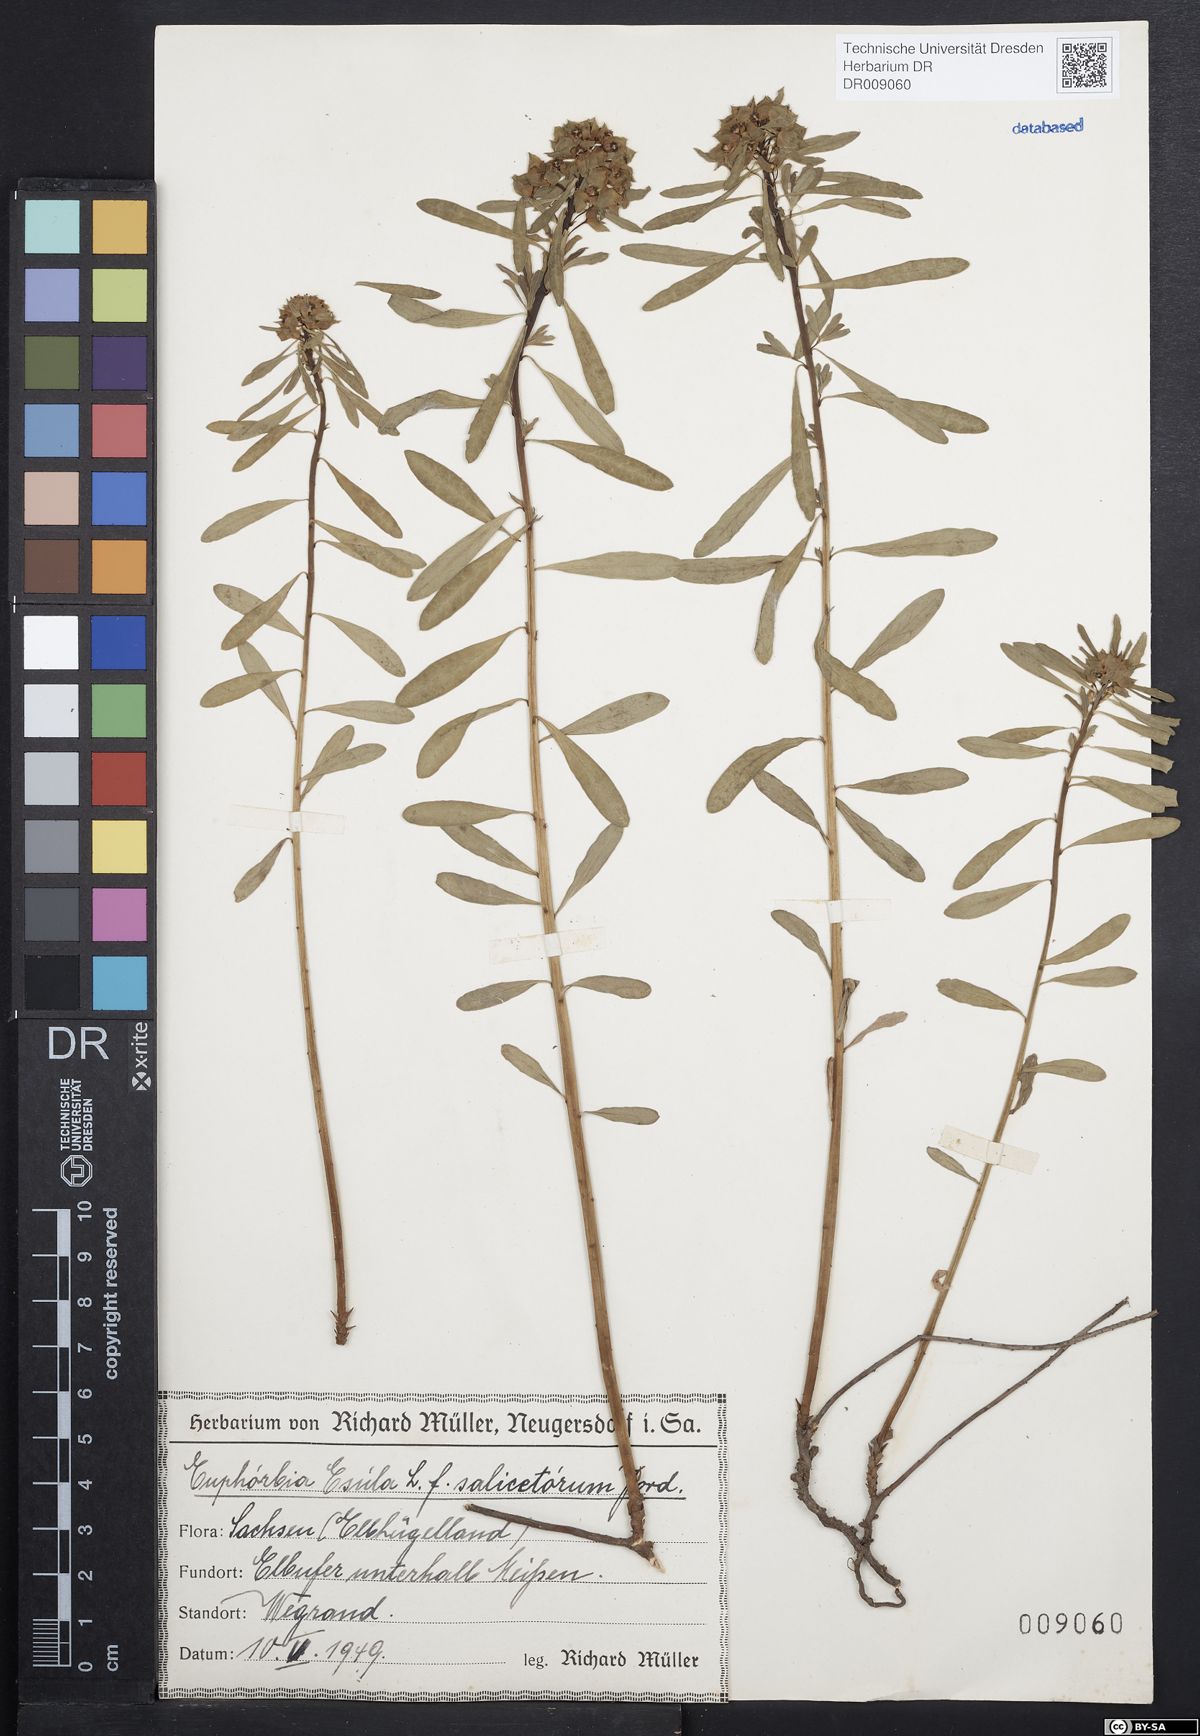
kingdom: Plantae
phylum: Tracheophyta
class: Magnoliopsida
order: Malpighiales
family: Euphorbiaceae
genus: Euphorbia
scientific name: Euphorbia esula
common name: Leafy spurge
